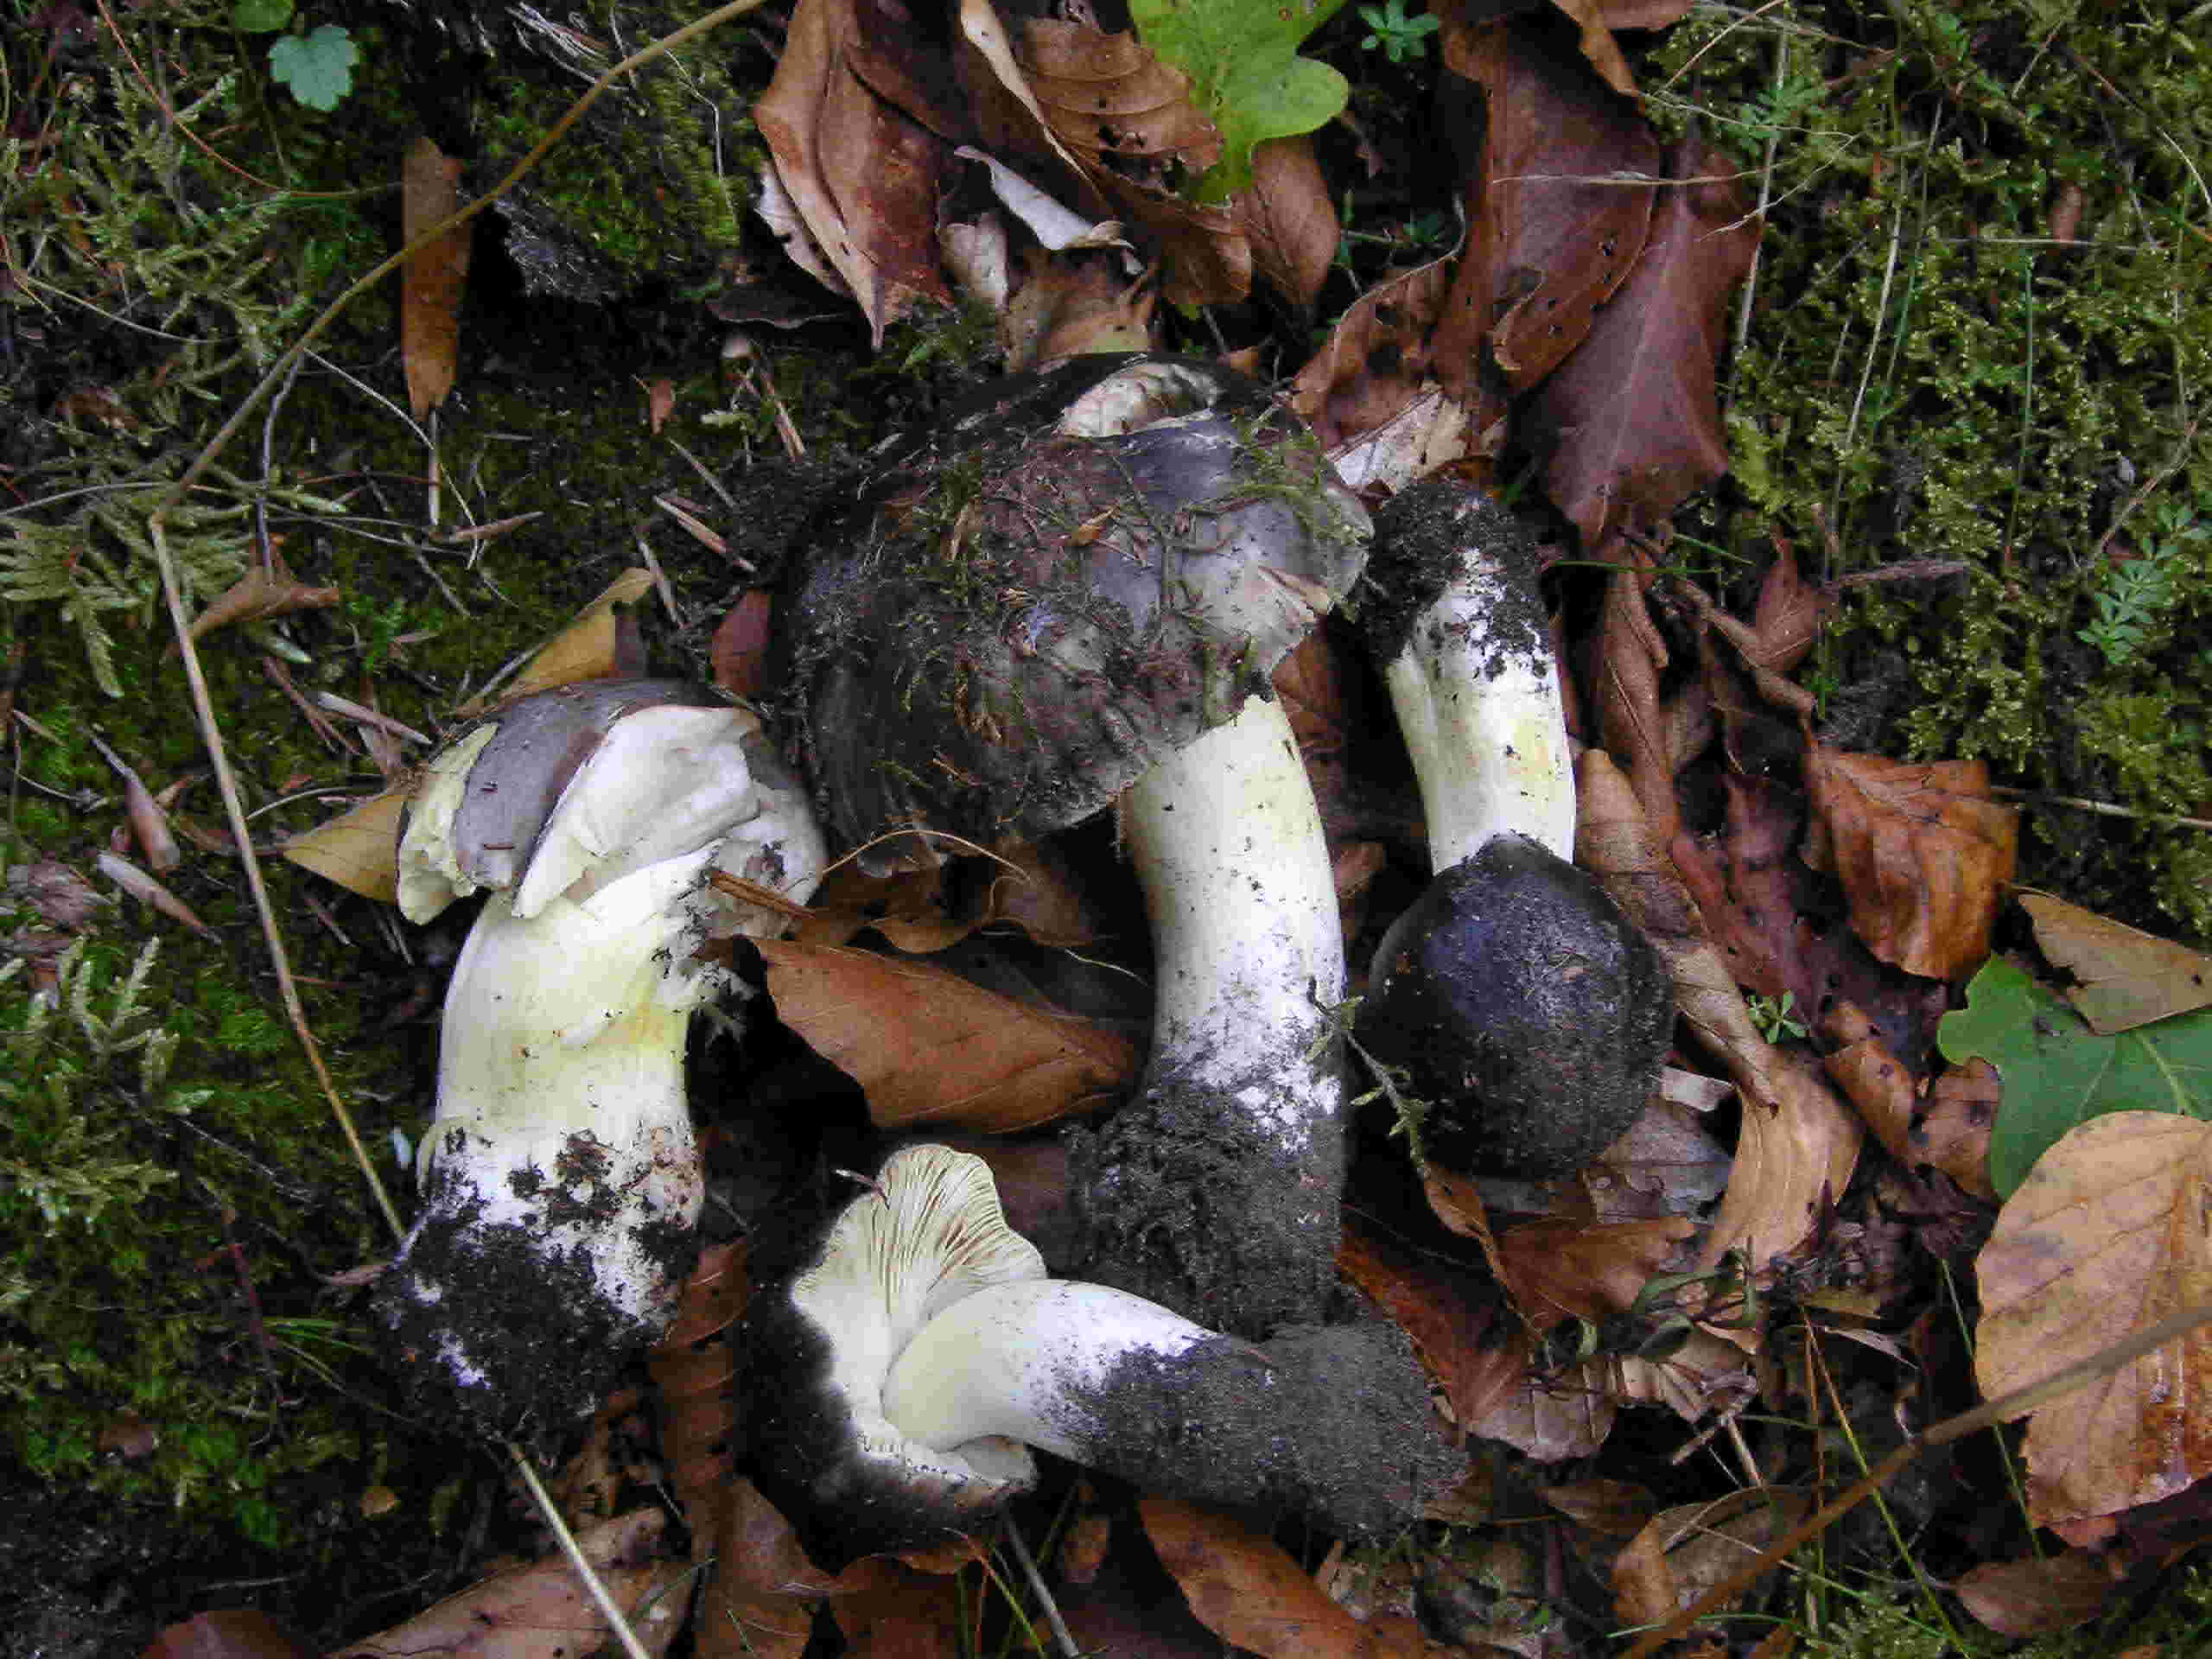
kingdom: Fungi
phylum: Basidiomycota
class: Agaricomycetes
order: Agaricales
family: Tricholomataceae
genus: Tricholoma
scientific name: Tricholoma portentosum
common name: grå ridderhat
